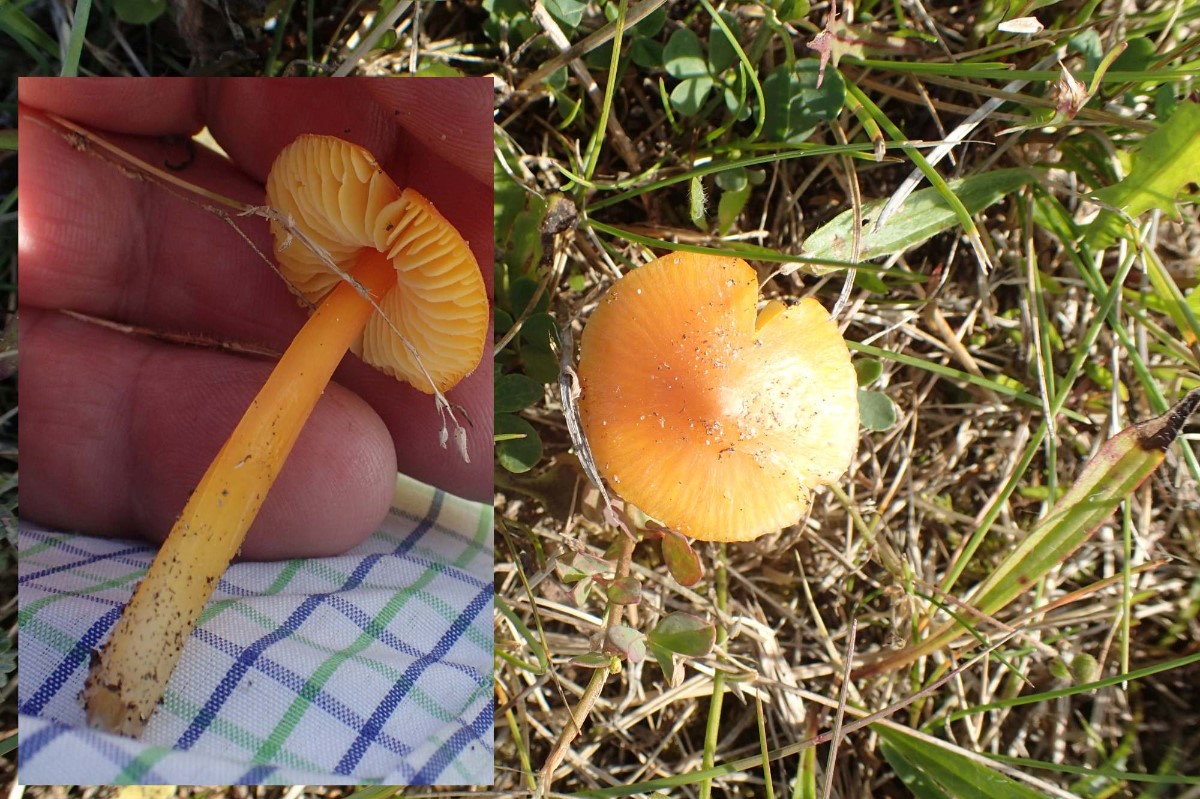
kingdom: Fungi
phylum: Basidiomycota
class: Agaricomycetes
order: Agaricales
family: Hygrophoraceae
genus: Hygrocybe
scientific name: Hygrocybe acutoconica
